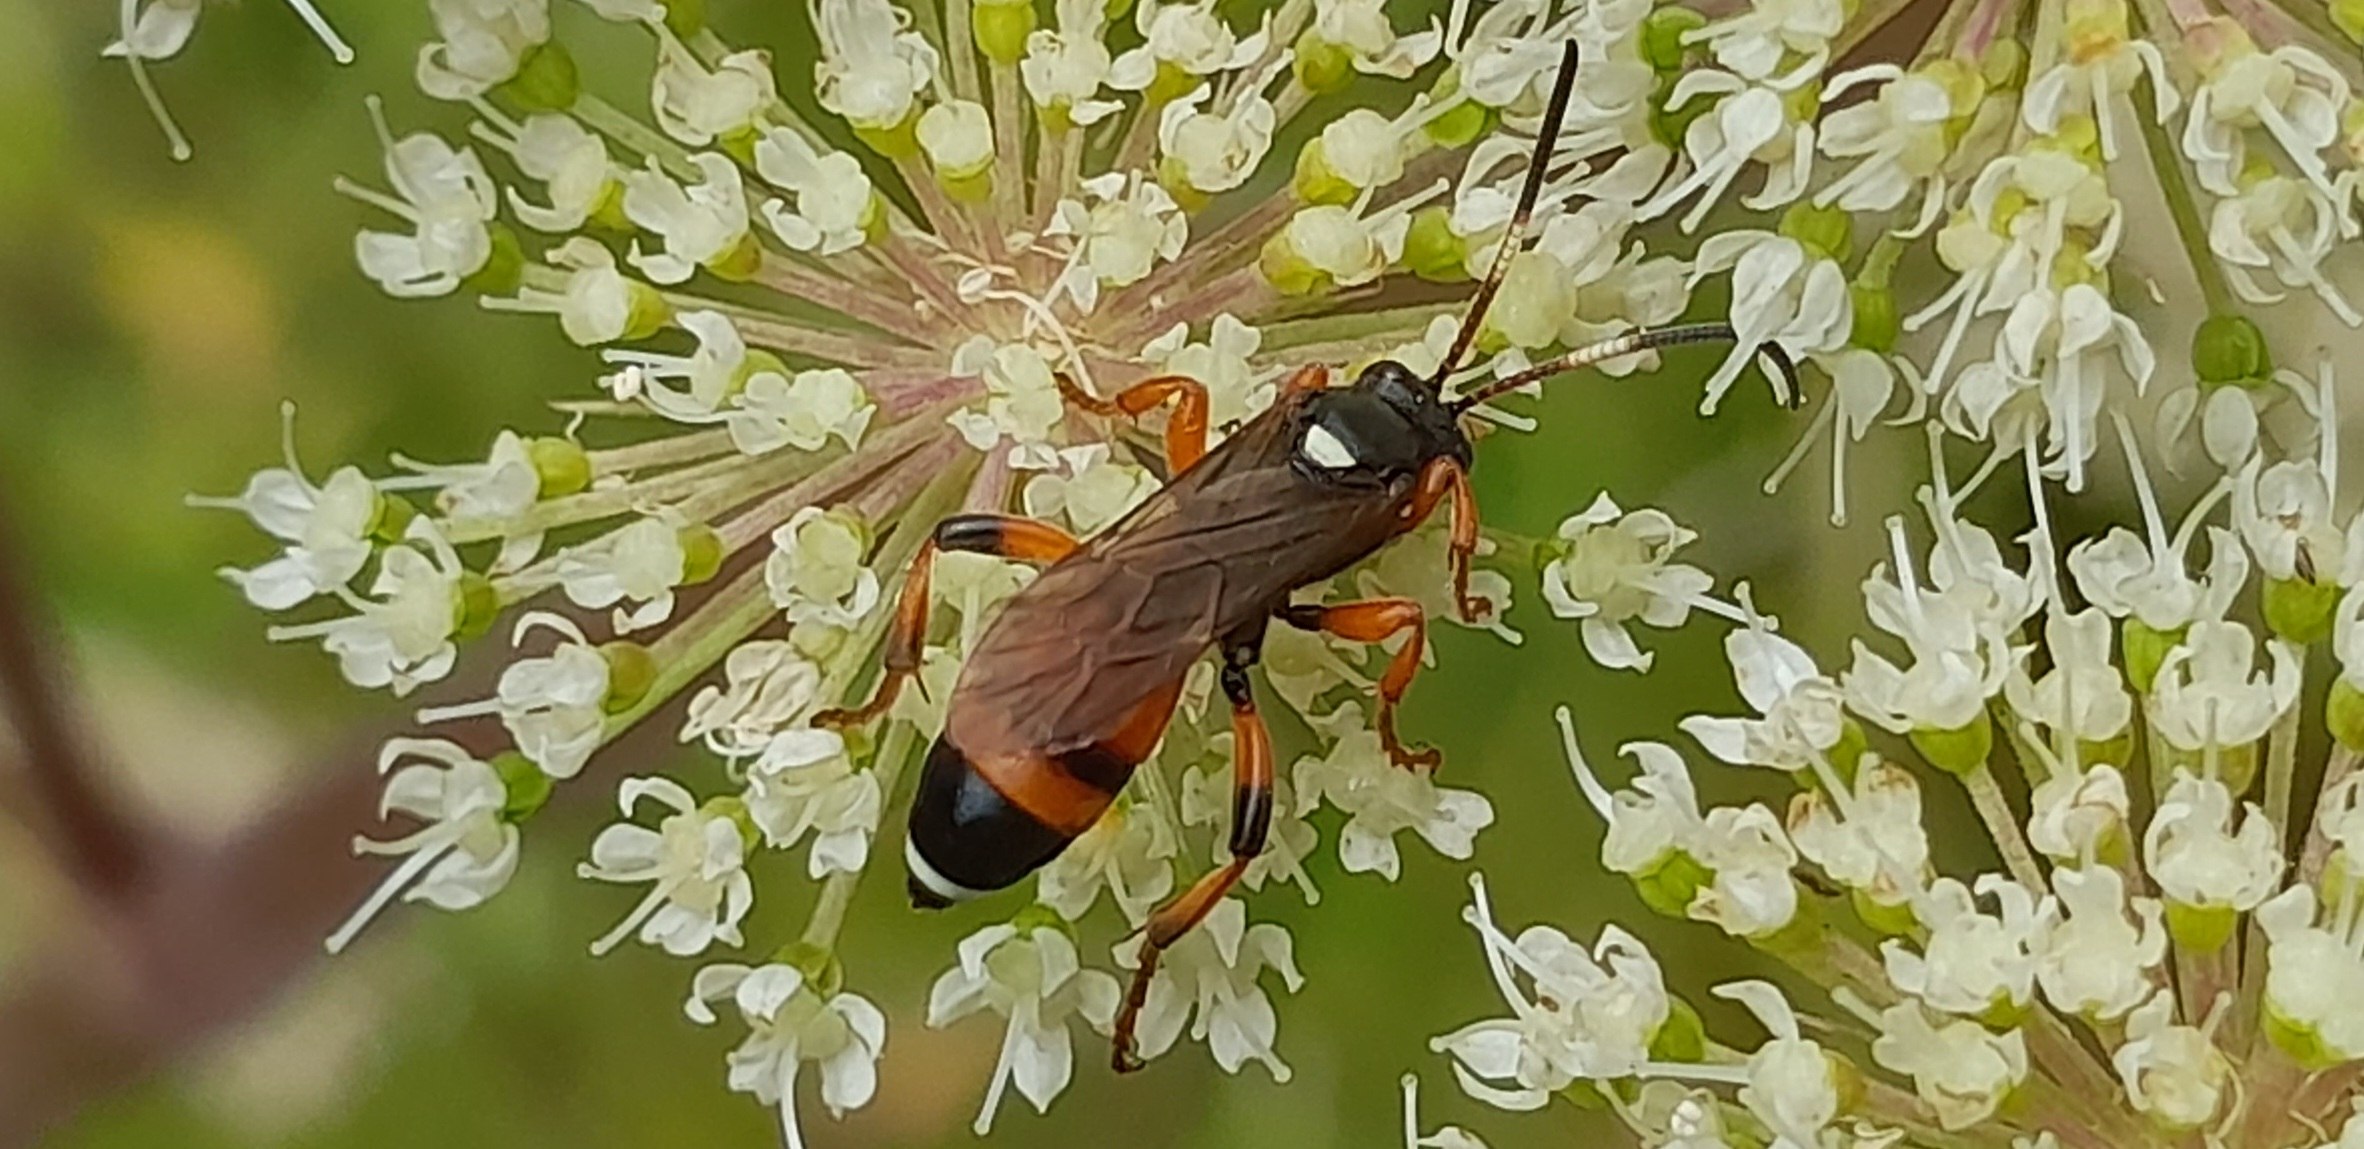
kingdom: Animalia
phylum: Arthropoda
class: Insecta
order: Hymenoptera
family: Ichneumonidae
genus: Ichneumon
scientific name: Ichneumon sarcitorius
